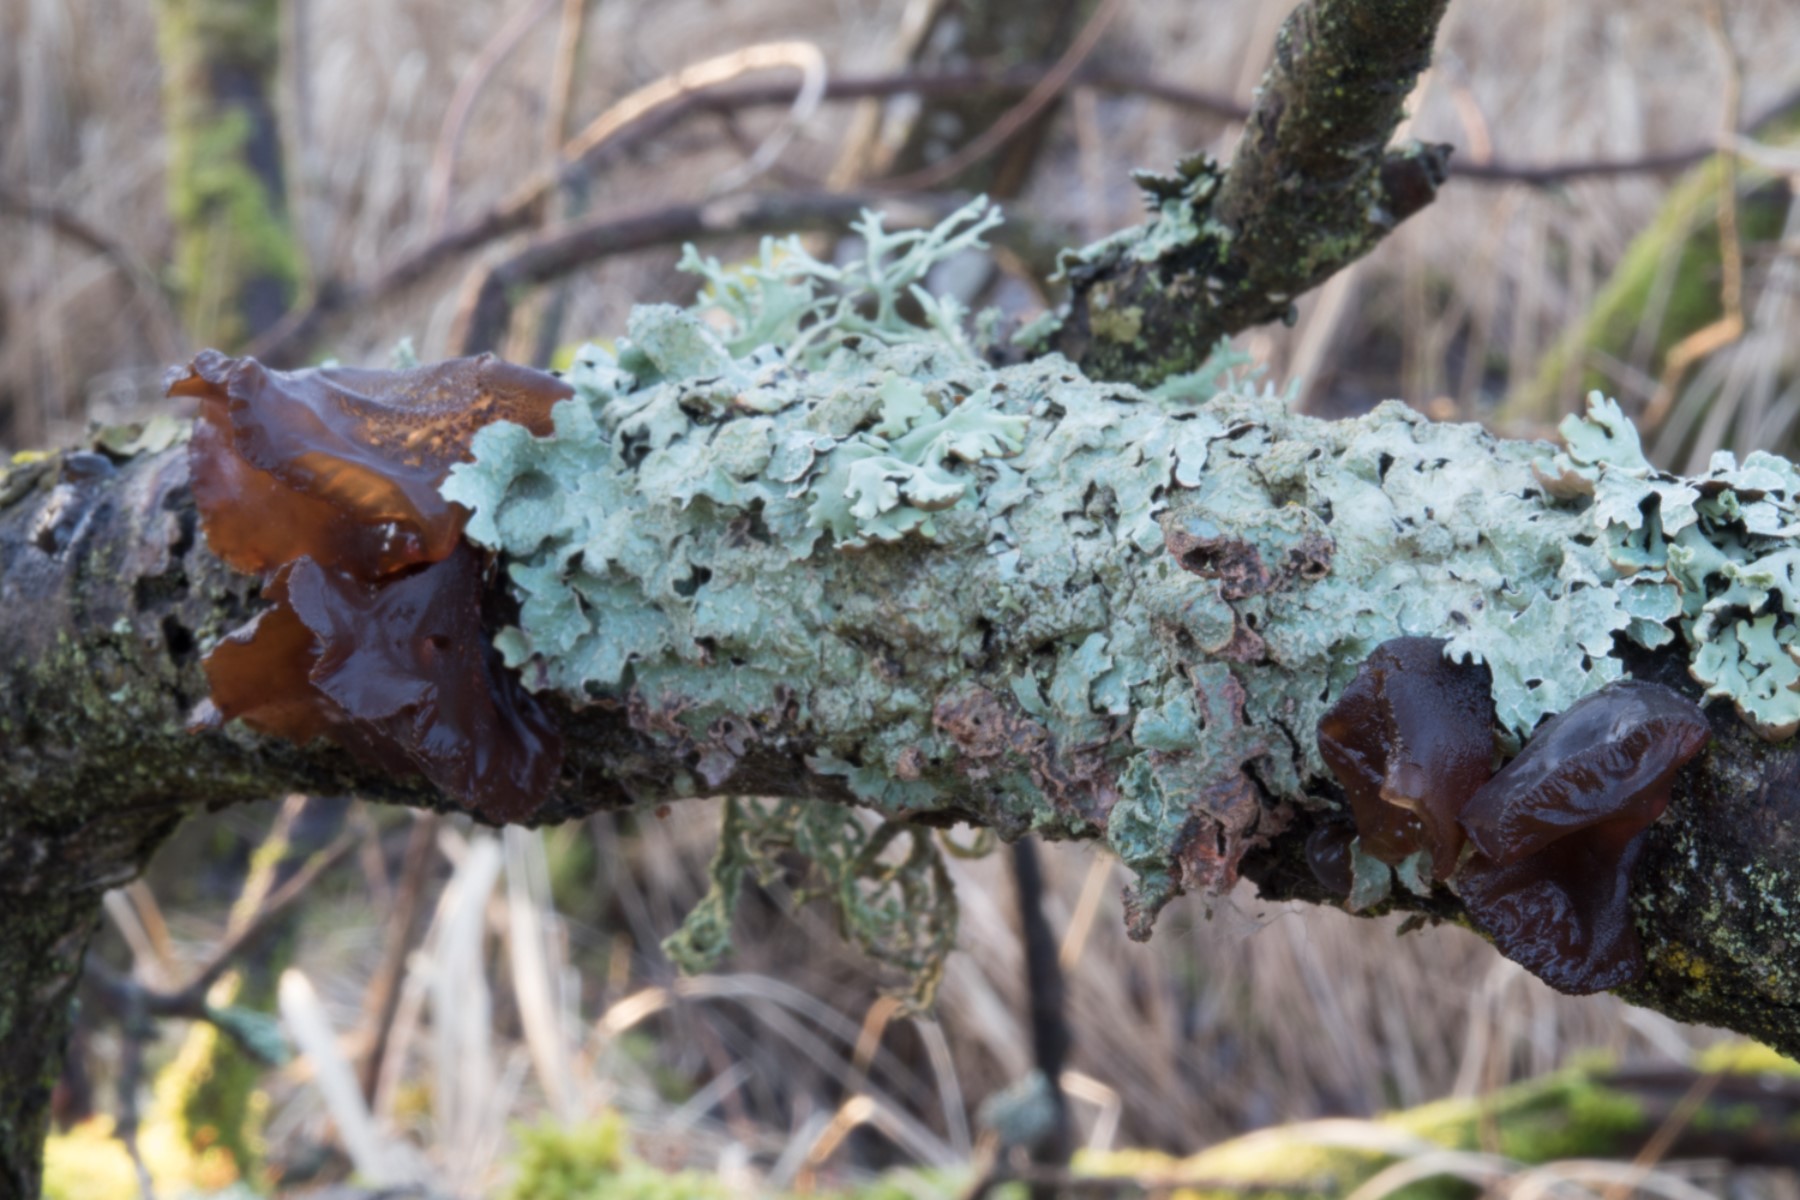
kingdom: Fungi
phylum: Basidiomycota
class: Agaricomycetes
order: Auriculariales
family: Auriculariaceae
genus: Exidia
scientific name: Exidia recisa
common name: pile-bævretop
